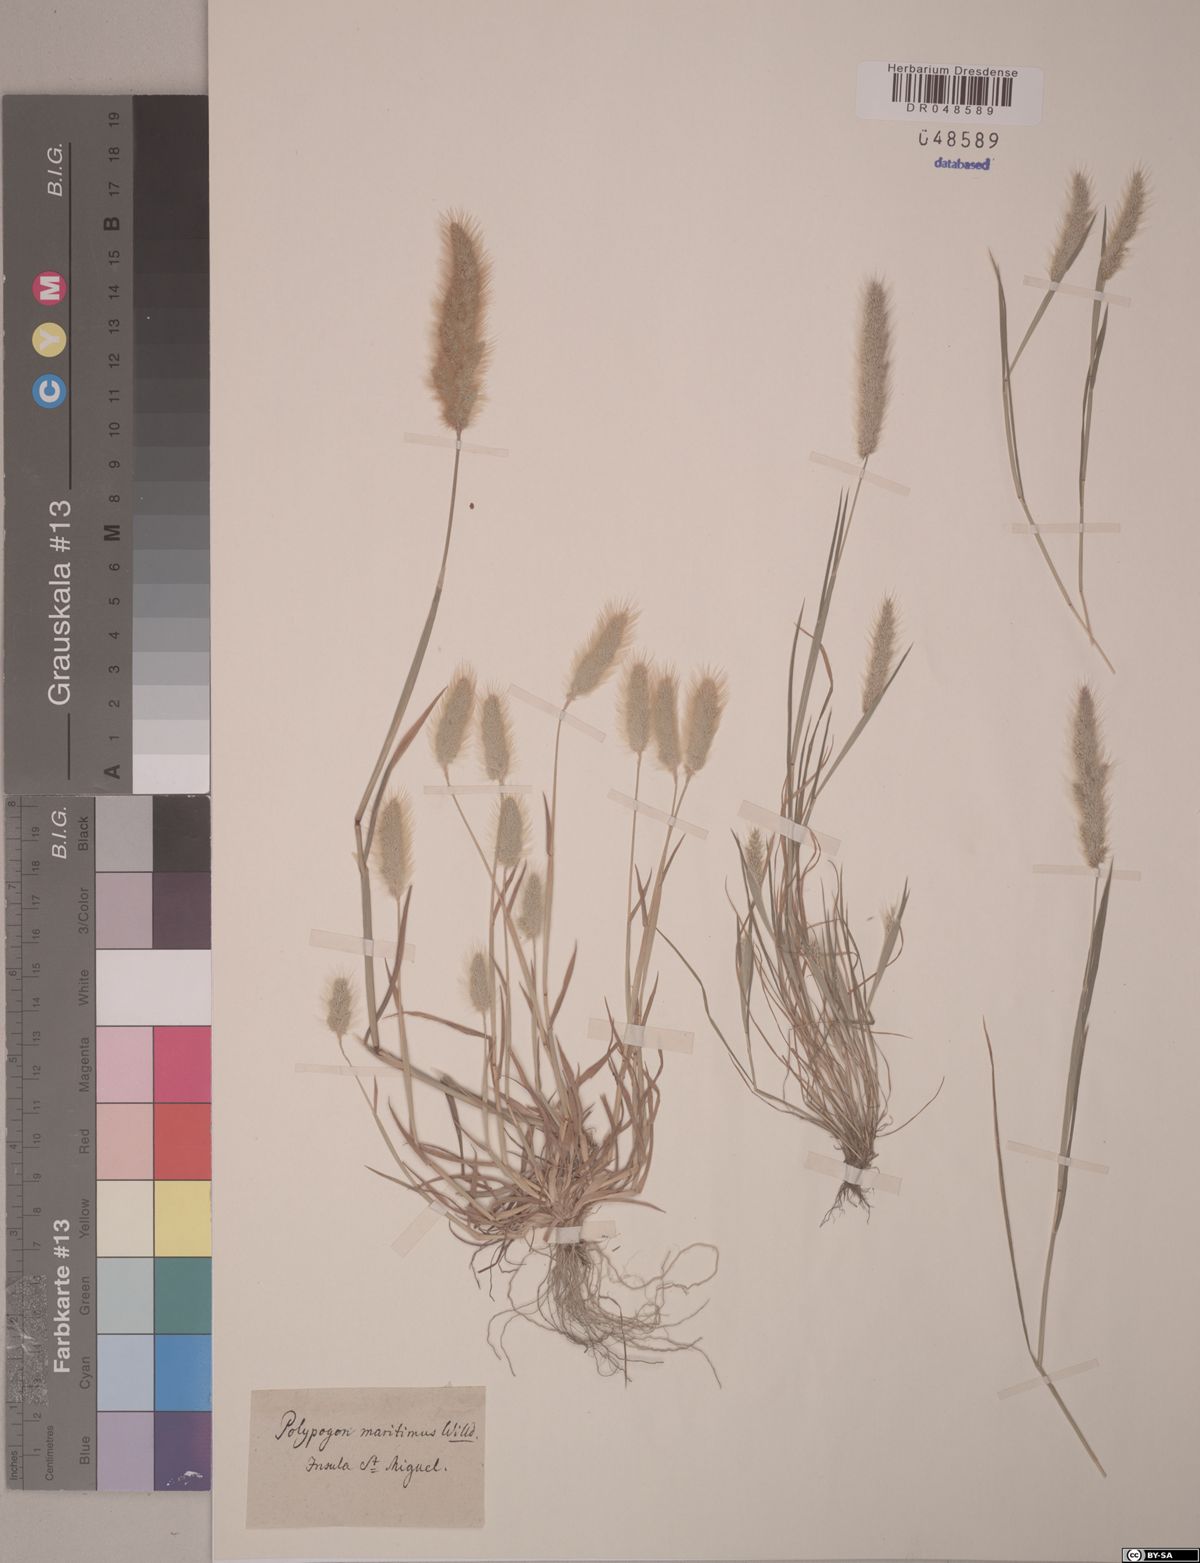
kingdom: Plantae
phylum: Tracheophyta
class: Liliopsida
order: Poales
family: Poaceae
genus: Polypogon
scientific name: Polypogon maritimus
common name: Mediterranean rabbitsfoot grass
